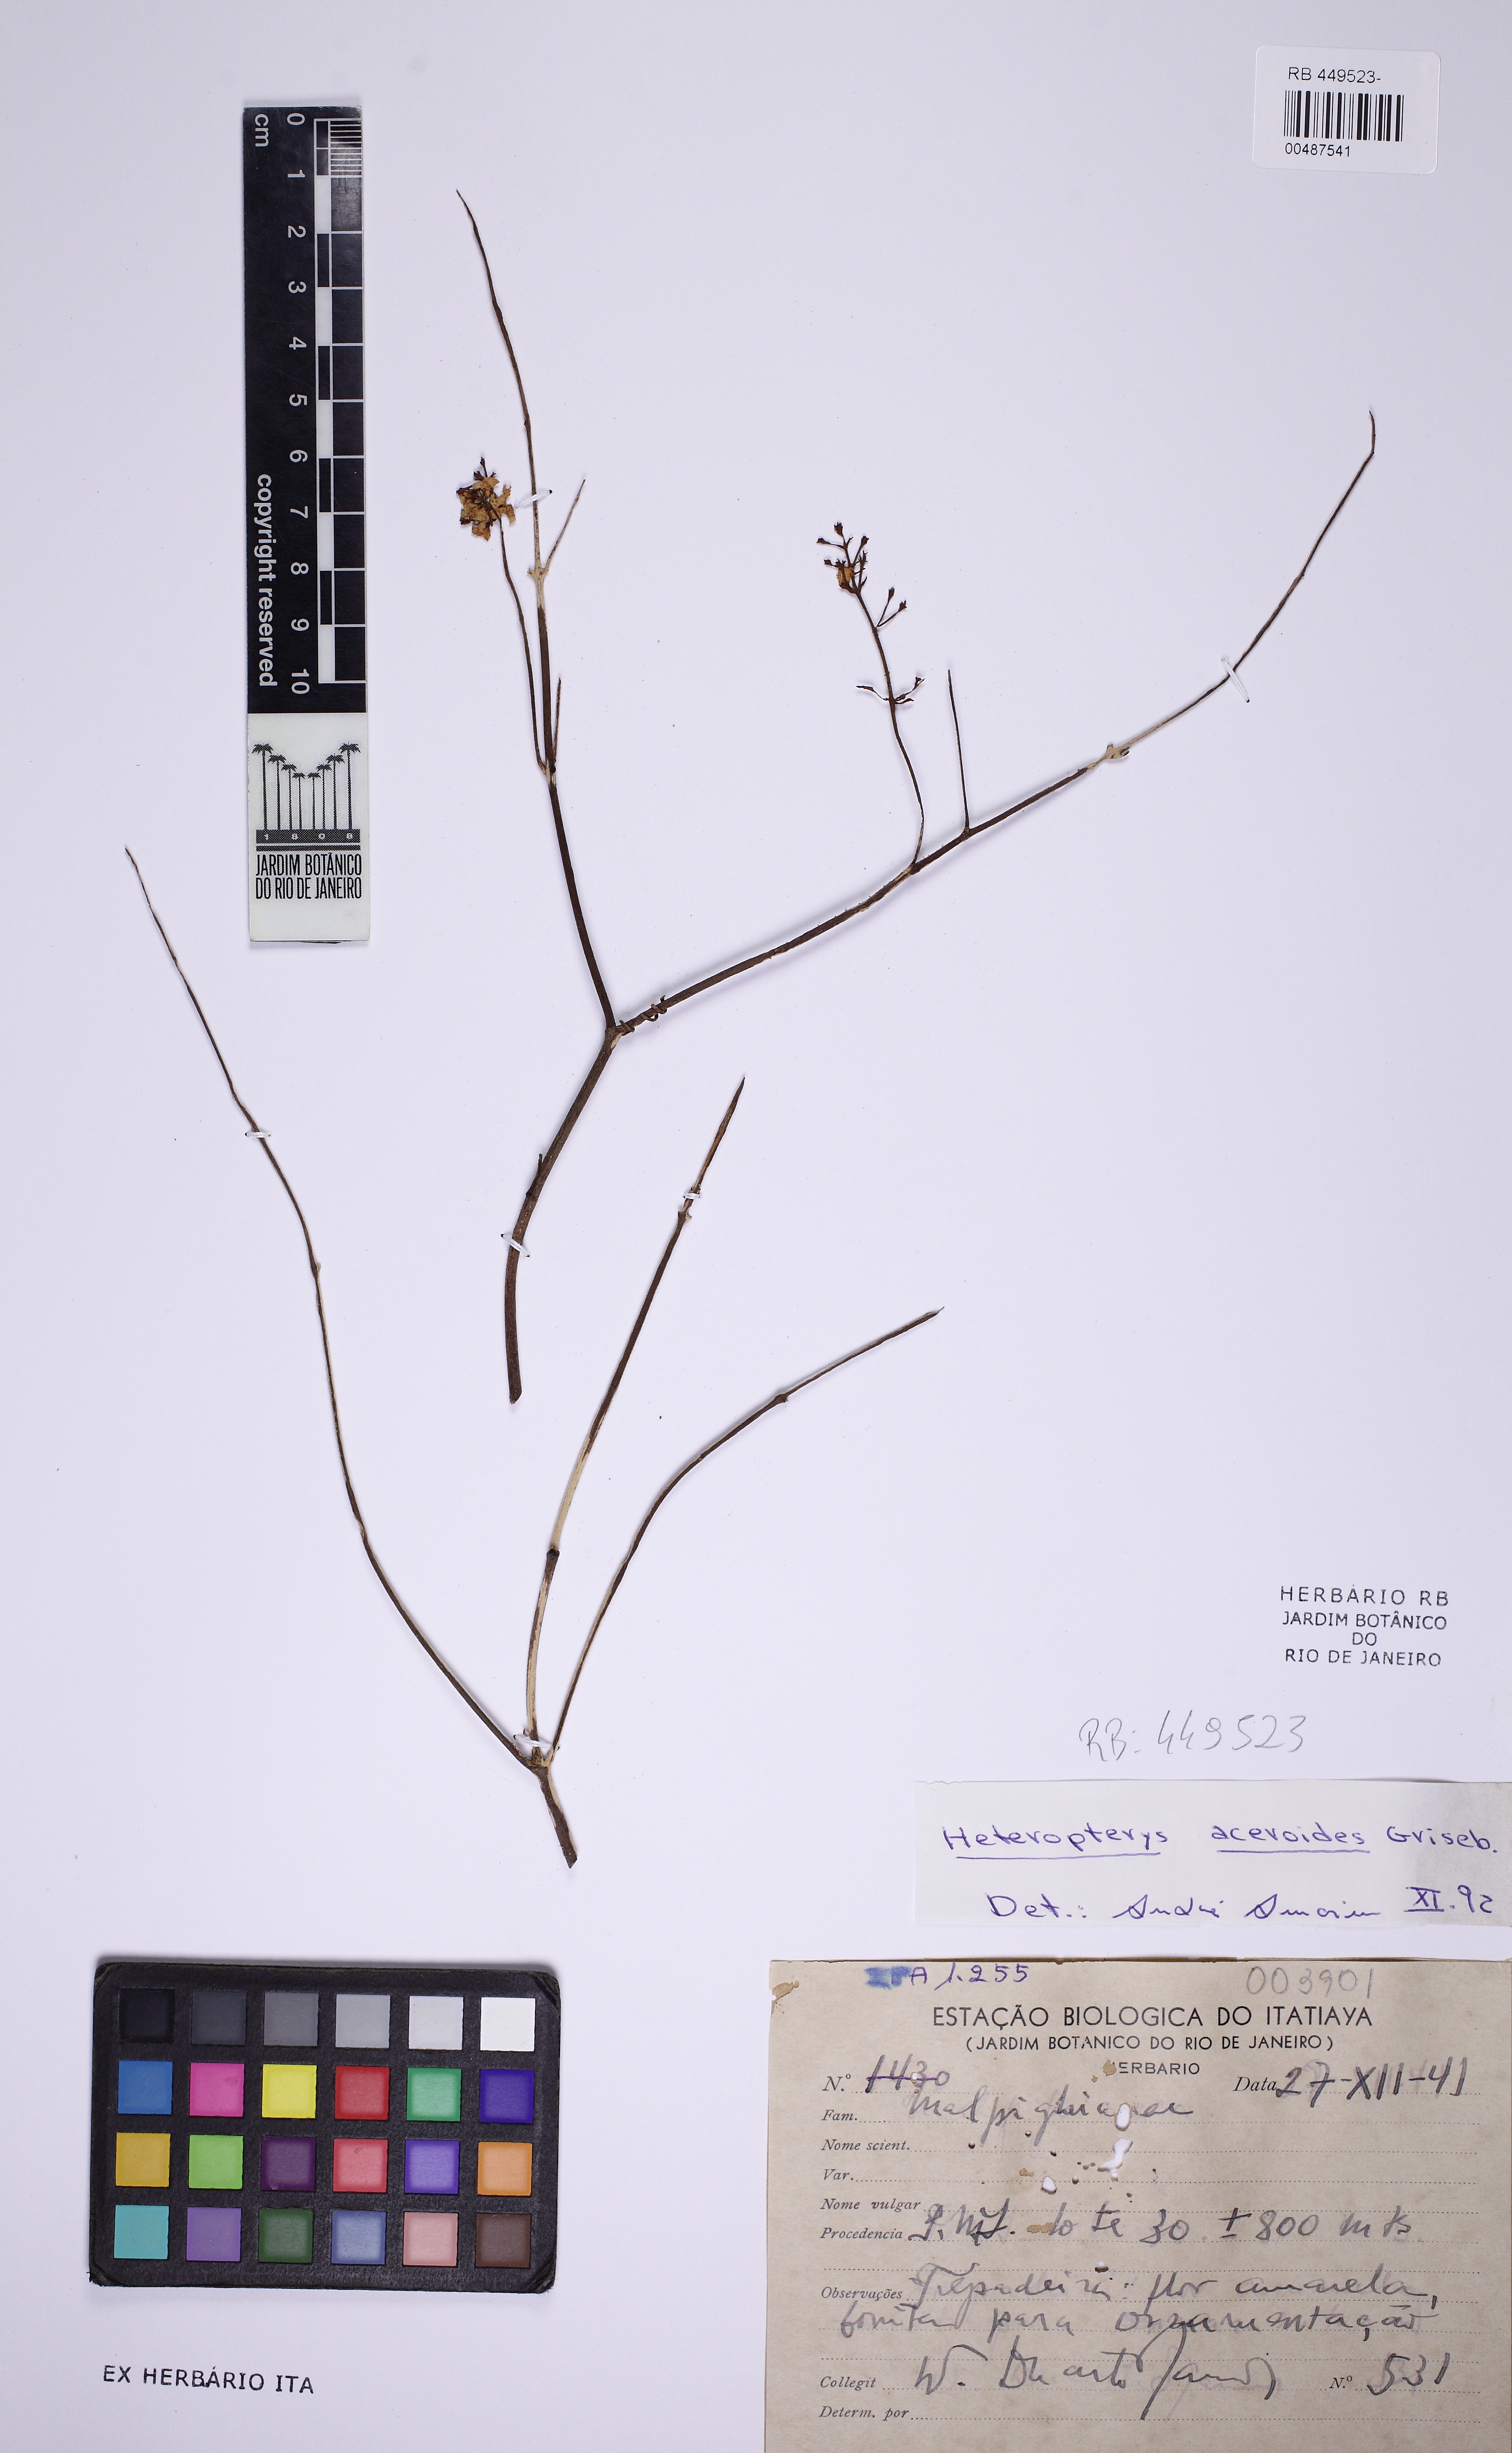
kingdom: Plantae
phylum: Tracheophyta
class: Magnoliopsida
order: Malpighiales
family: Malpighiaceae
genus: Heteropterys
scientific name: Heteropterys intermedia
